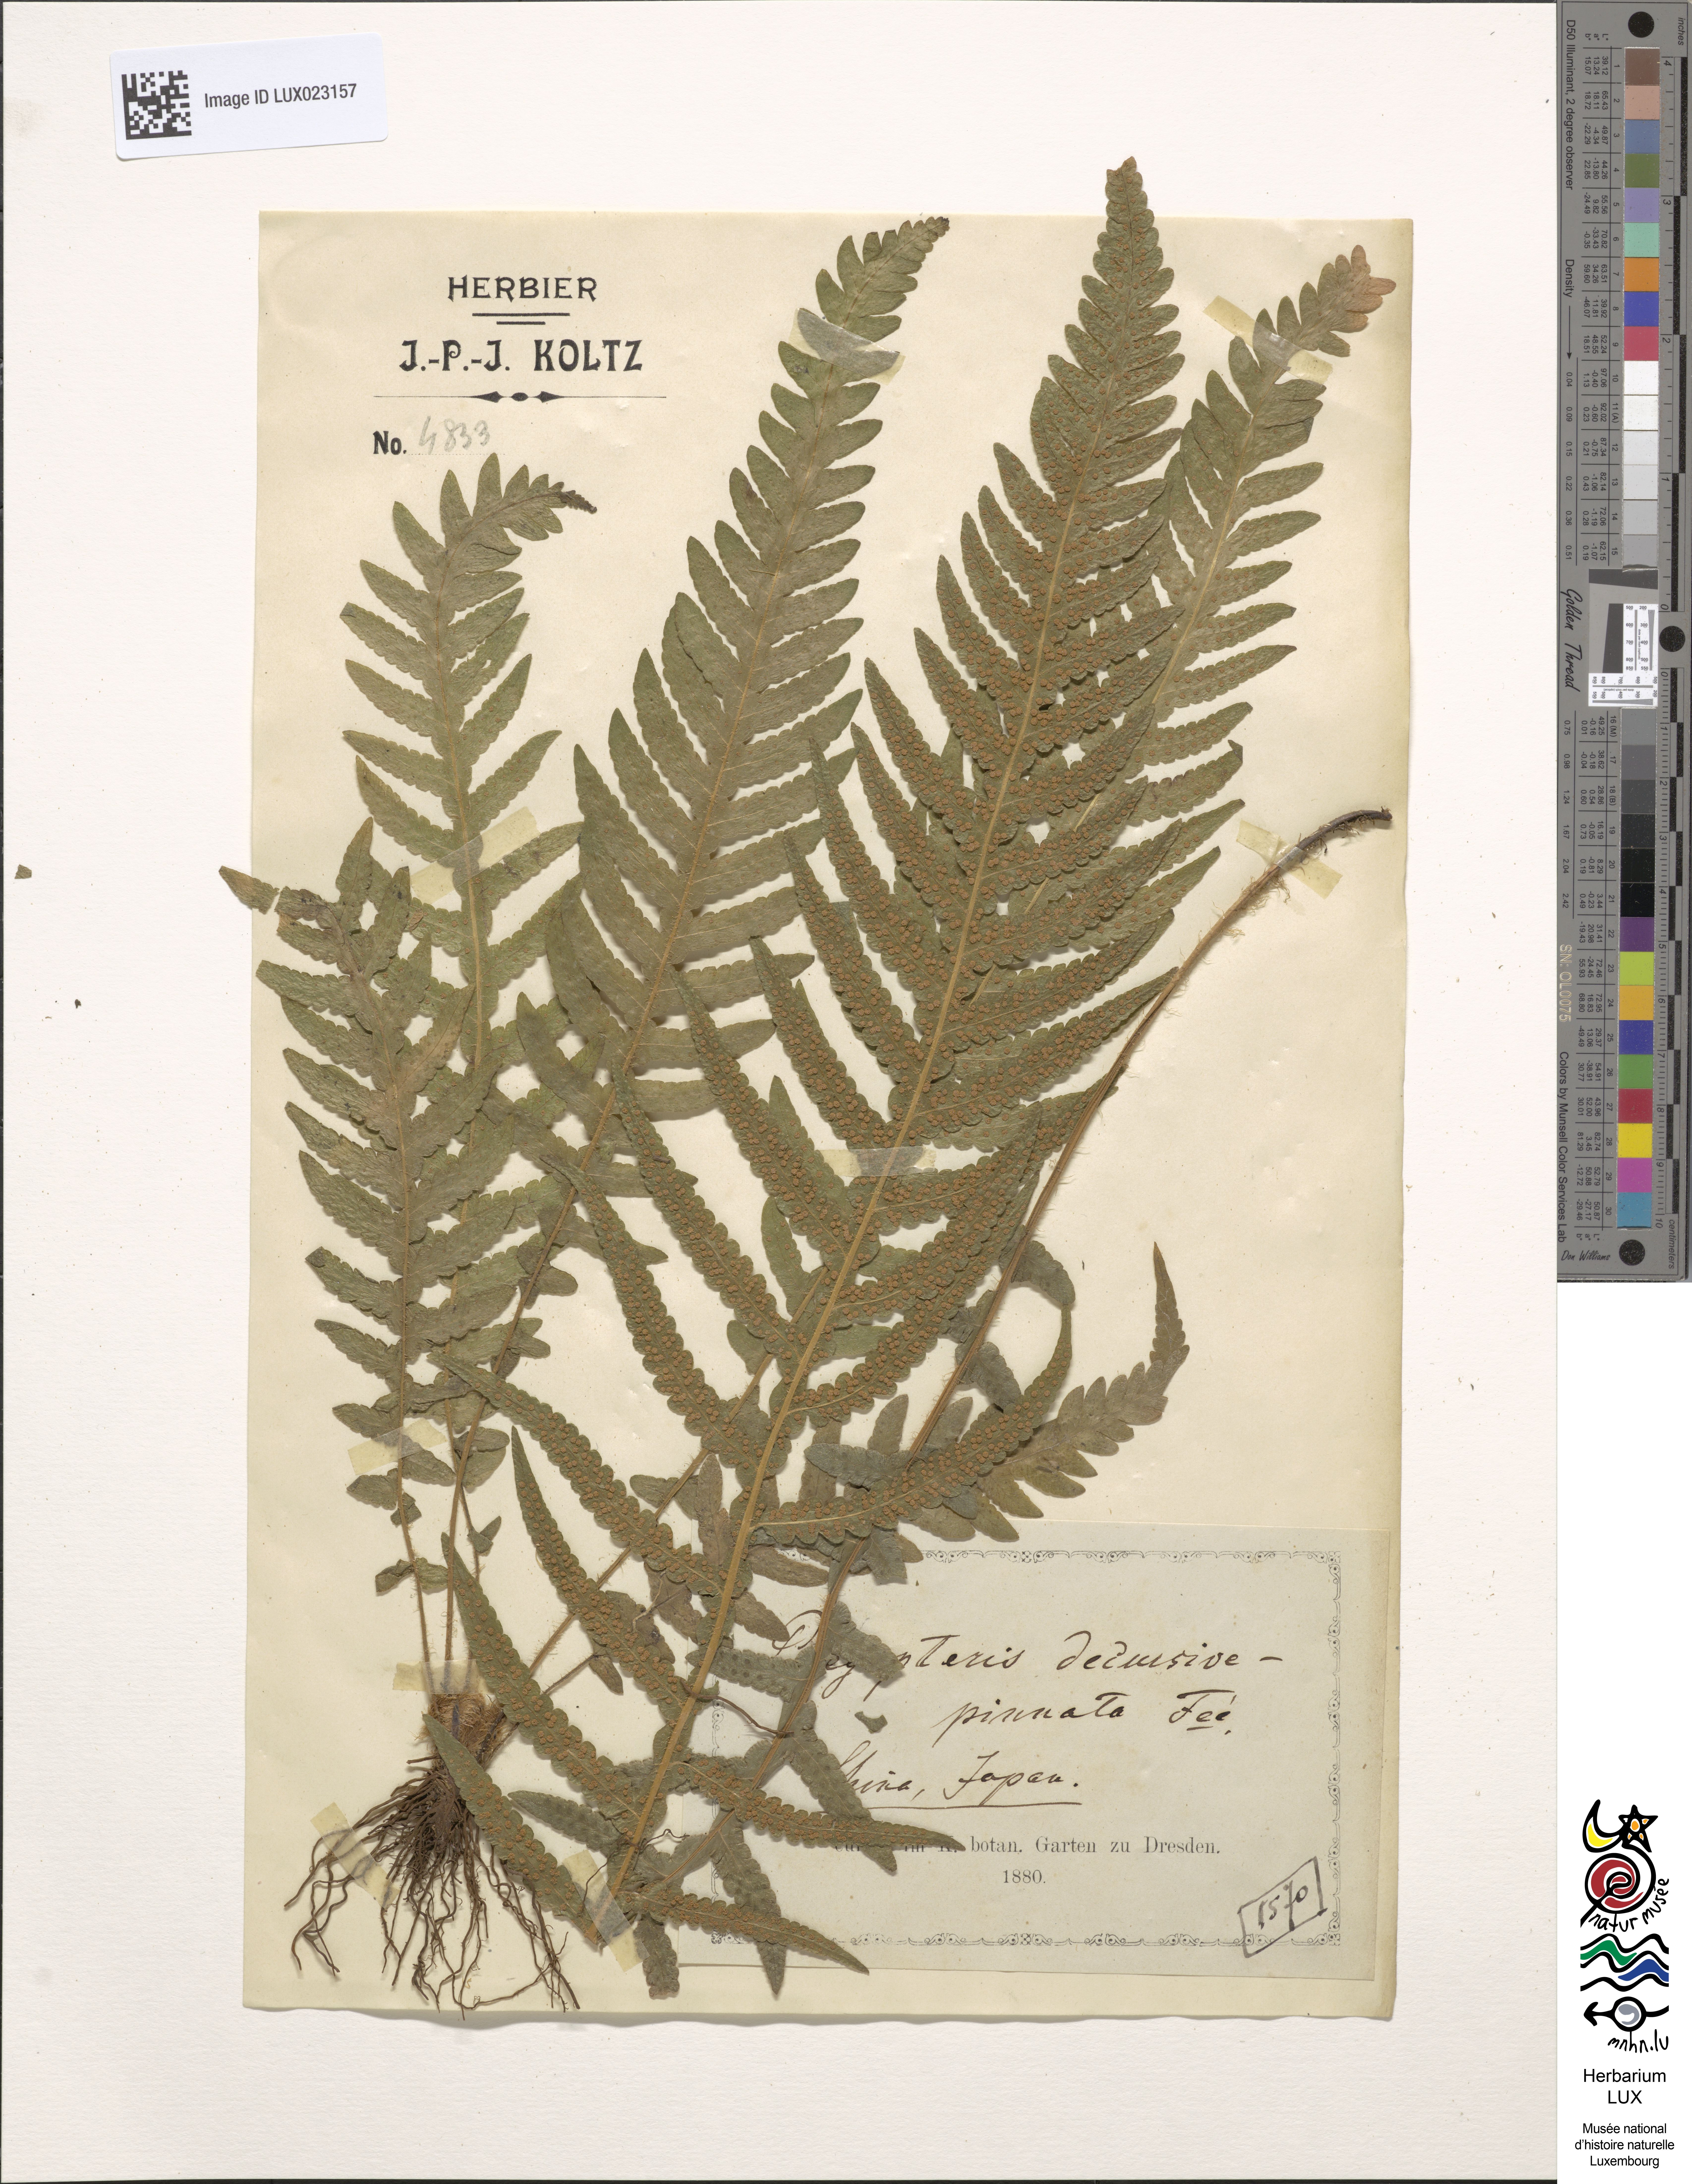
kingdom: Plantae
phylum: Tracheophyta
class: Polypodiopsida
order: Polypodiales
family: Thelypteridaceae
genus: Phegopteris
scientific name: Phegopteris decursive-pinnata
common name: Japanese beech fern
